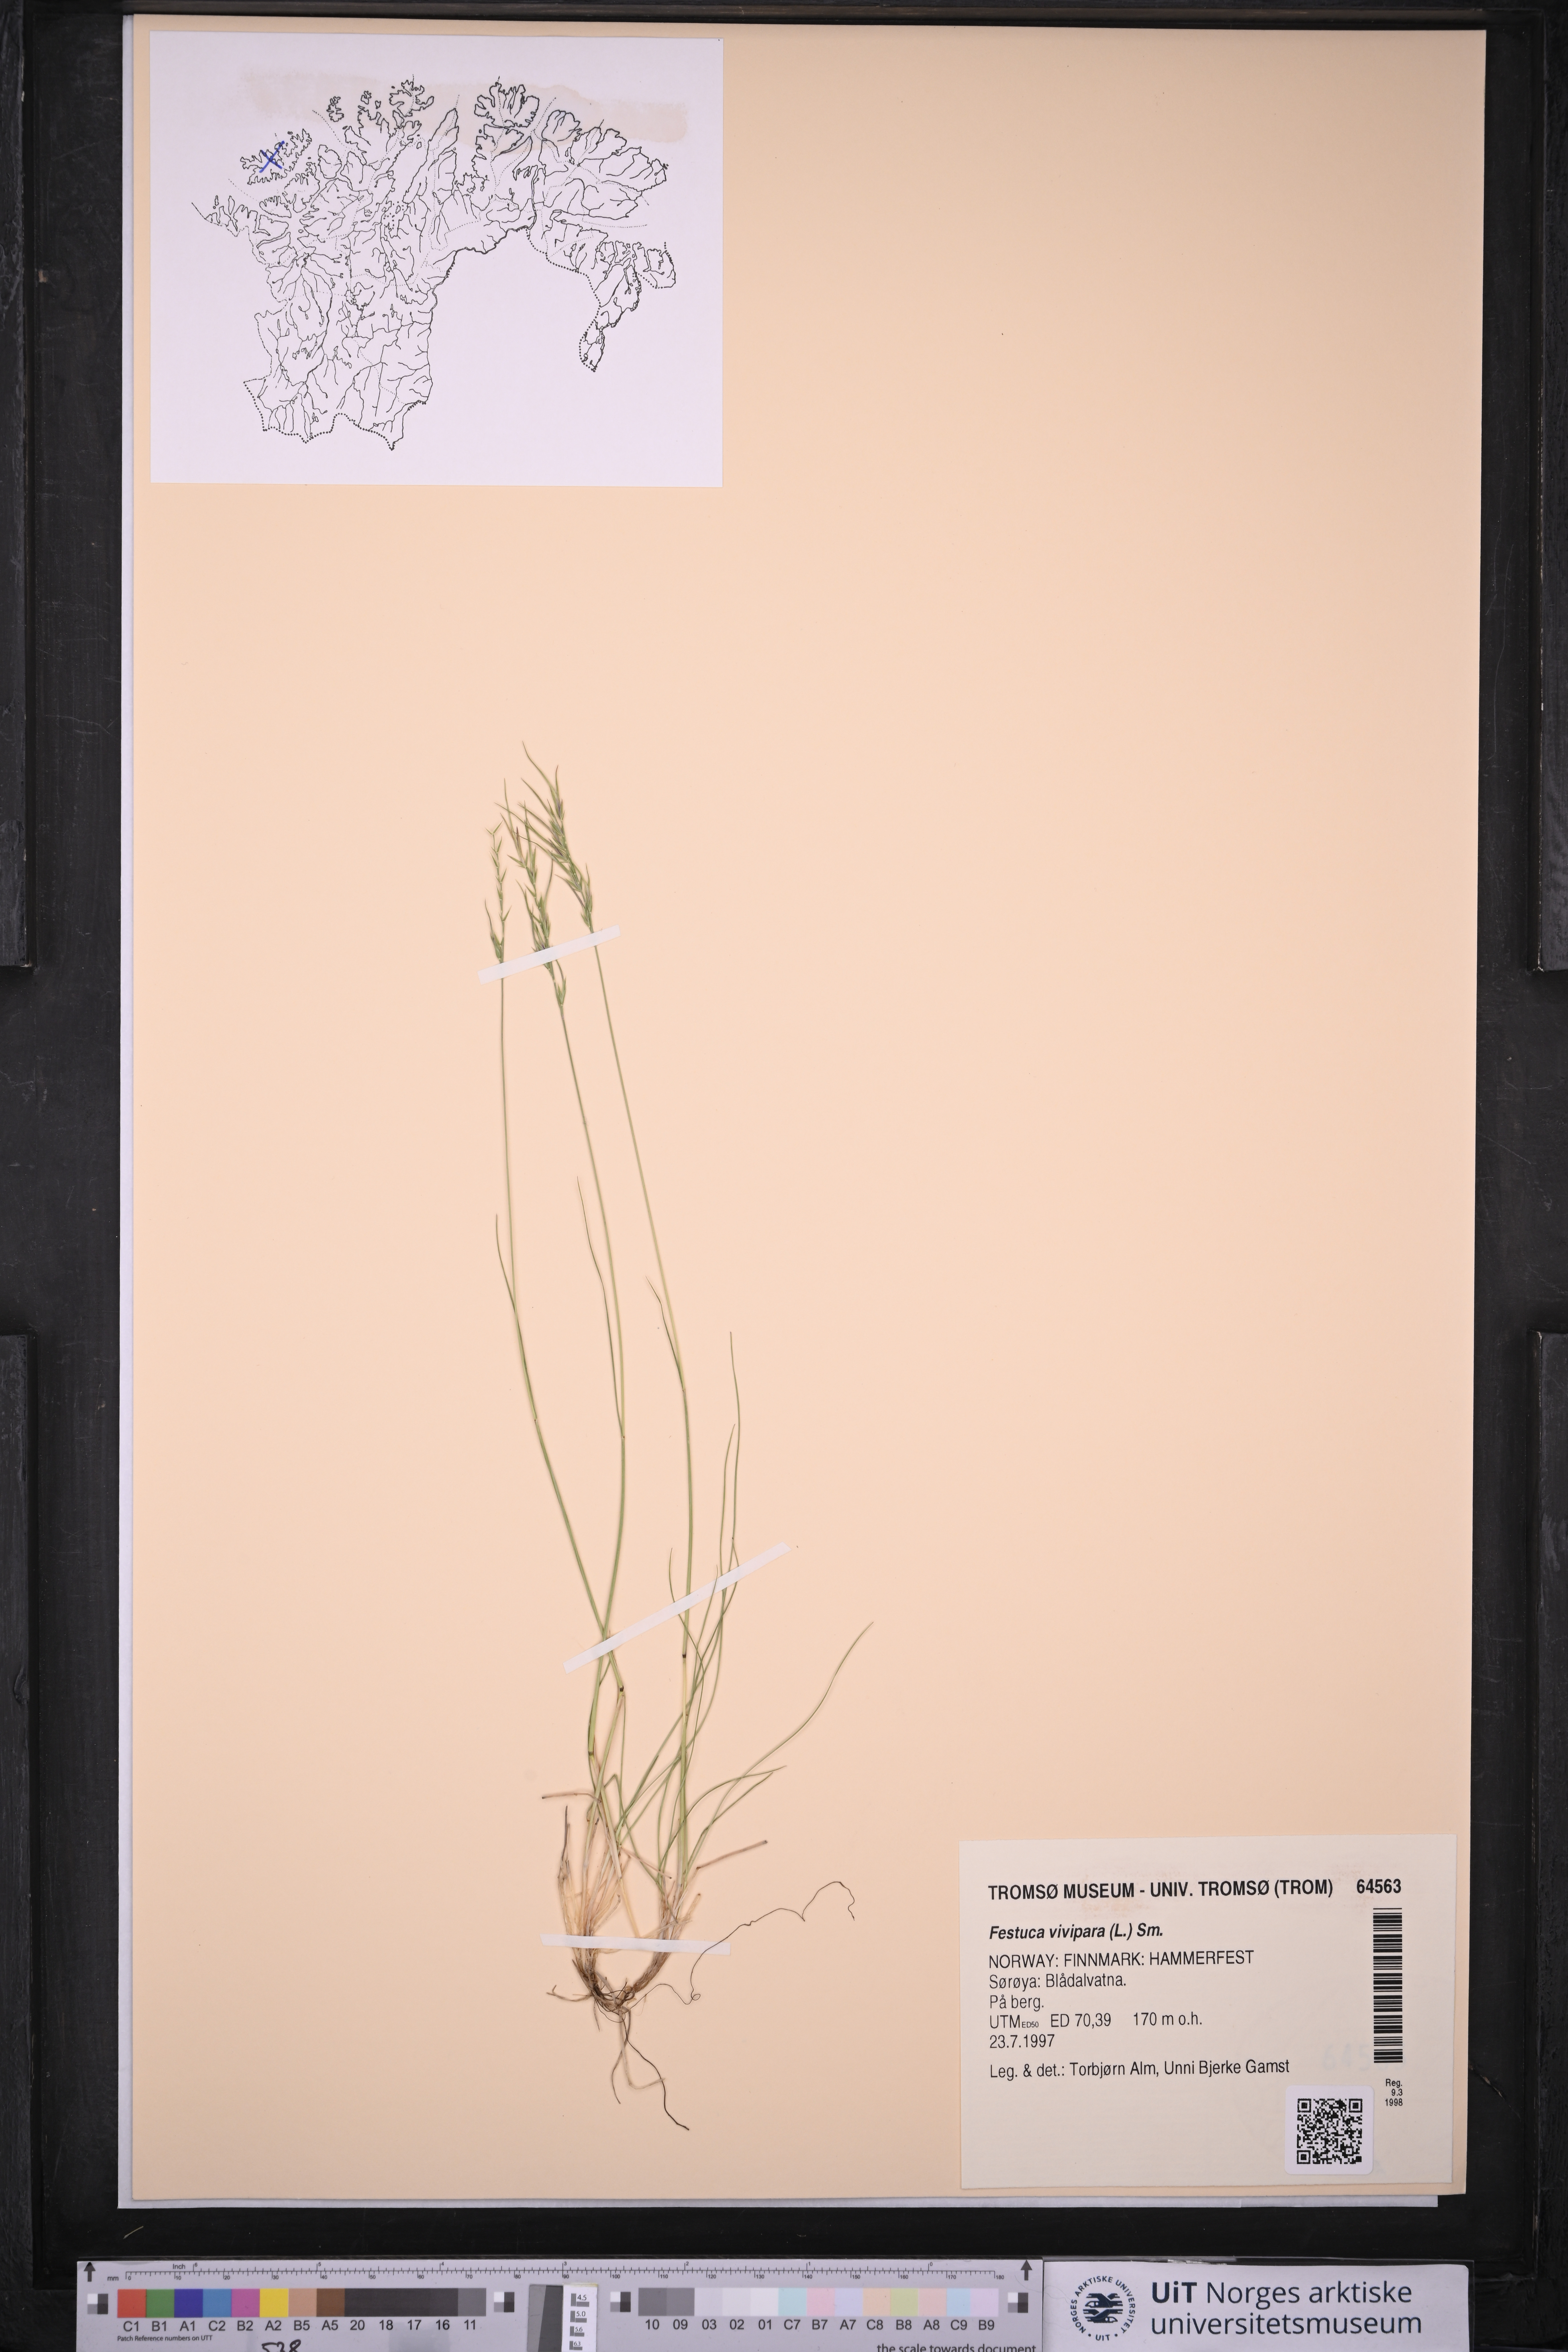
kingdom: Plantae
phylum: Tracheophyta
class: Liliopsida
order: Poales
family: Poaceae
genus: Festuca
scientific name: Festuca vivipara
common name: Viviparous sheep's-fescue
